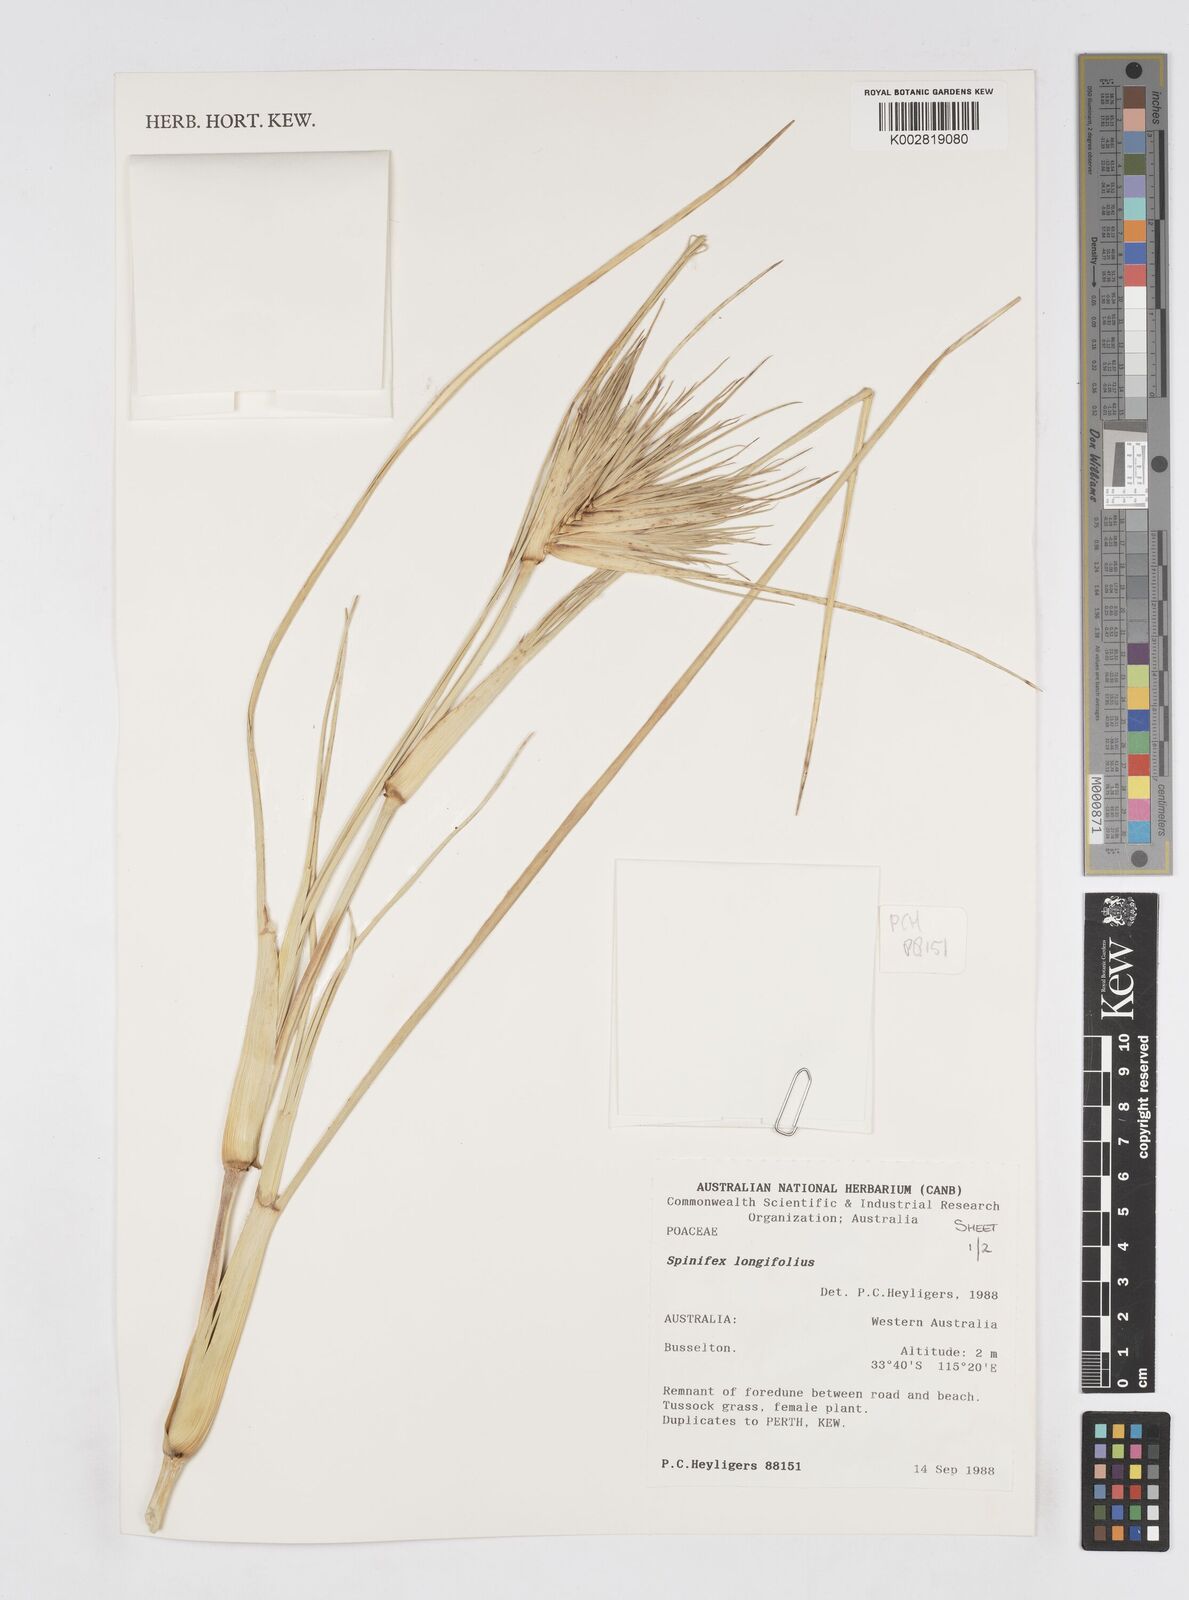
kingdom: Plantae
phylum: Tracheophyta
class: Liliopsida
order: Poales
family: Poaceae
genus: Spinifex
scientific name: Spinifex longifolius
